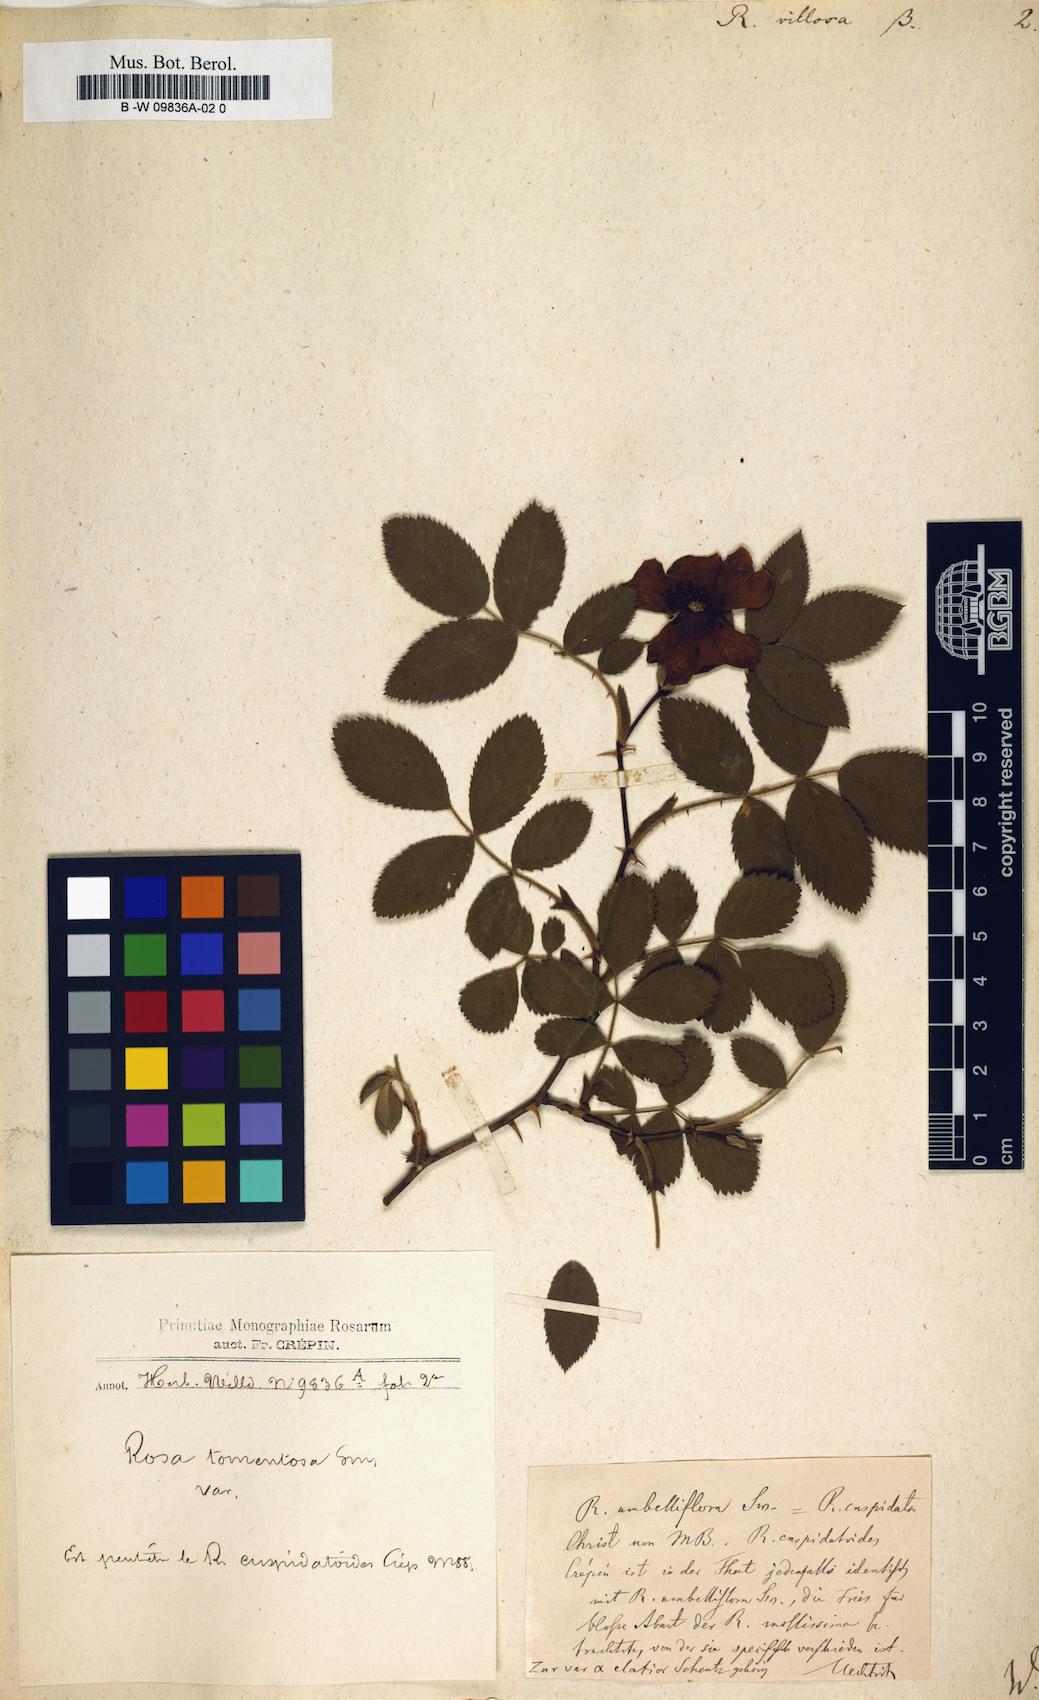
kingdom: Plantae
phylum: Tracheophyta
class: Magnoliopsida
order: Rosales
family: Rosaceae
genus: Rosa
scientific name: Rosa villosa
